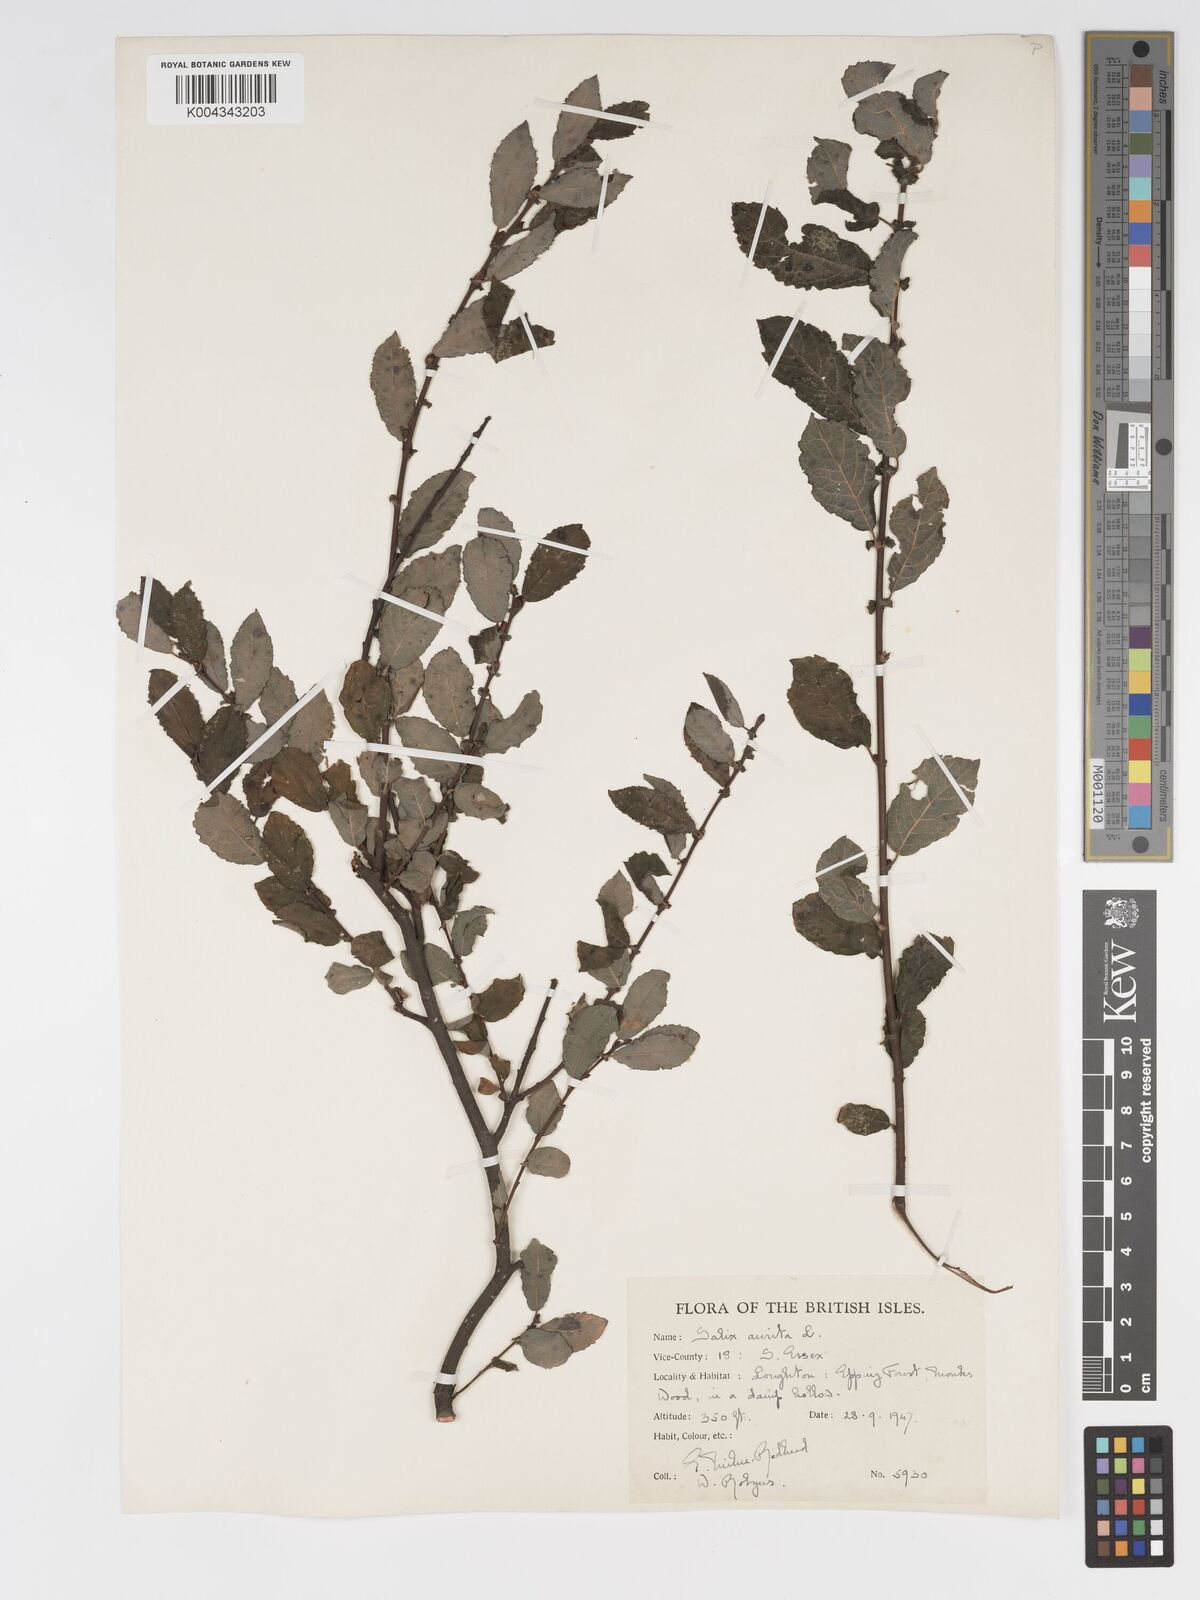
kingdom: Plantae
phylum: Tracheophyta
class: Magnoliopsida
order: Malpighiales
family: Salicaceae
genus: Salix
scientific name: Salix aurita
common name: Eared willow
